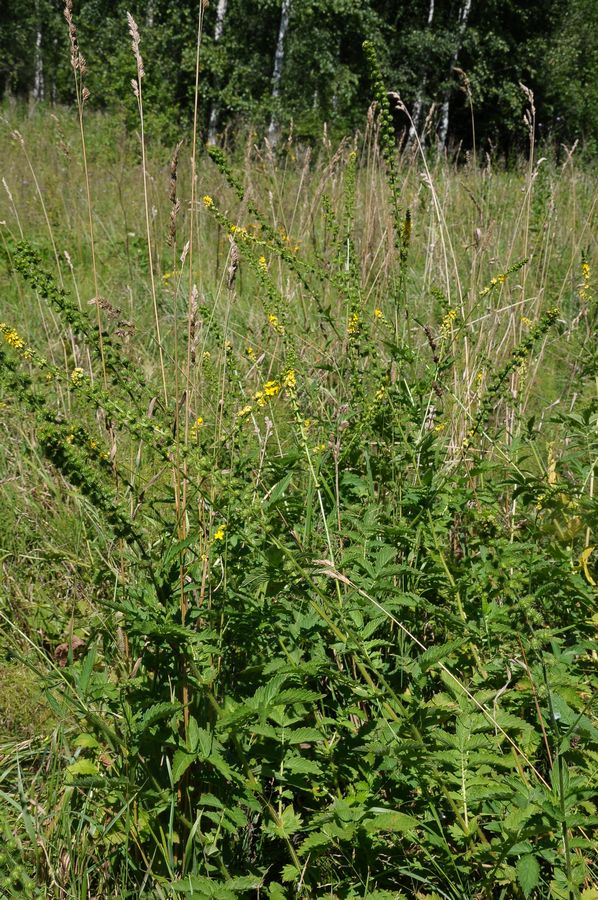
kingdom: Plantae
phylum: Tracheophyta
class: Magnoliopsida
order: Rosales
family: Rosaceae
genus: Agrimonia
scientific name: Agrimonia procera
